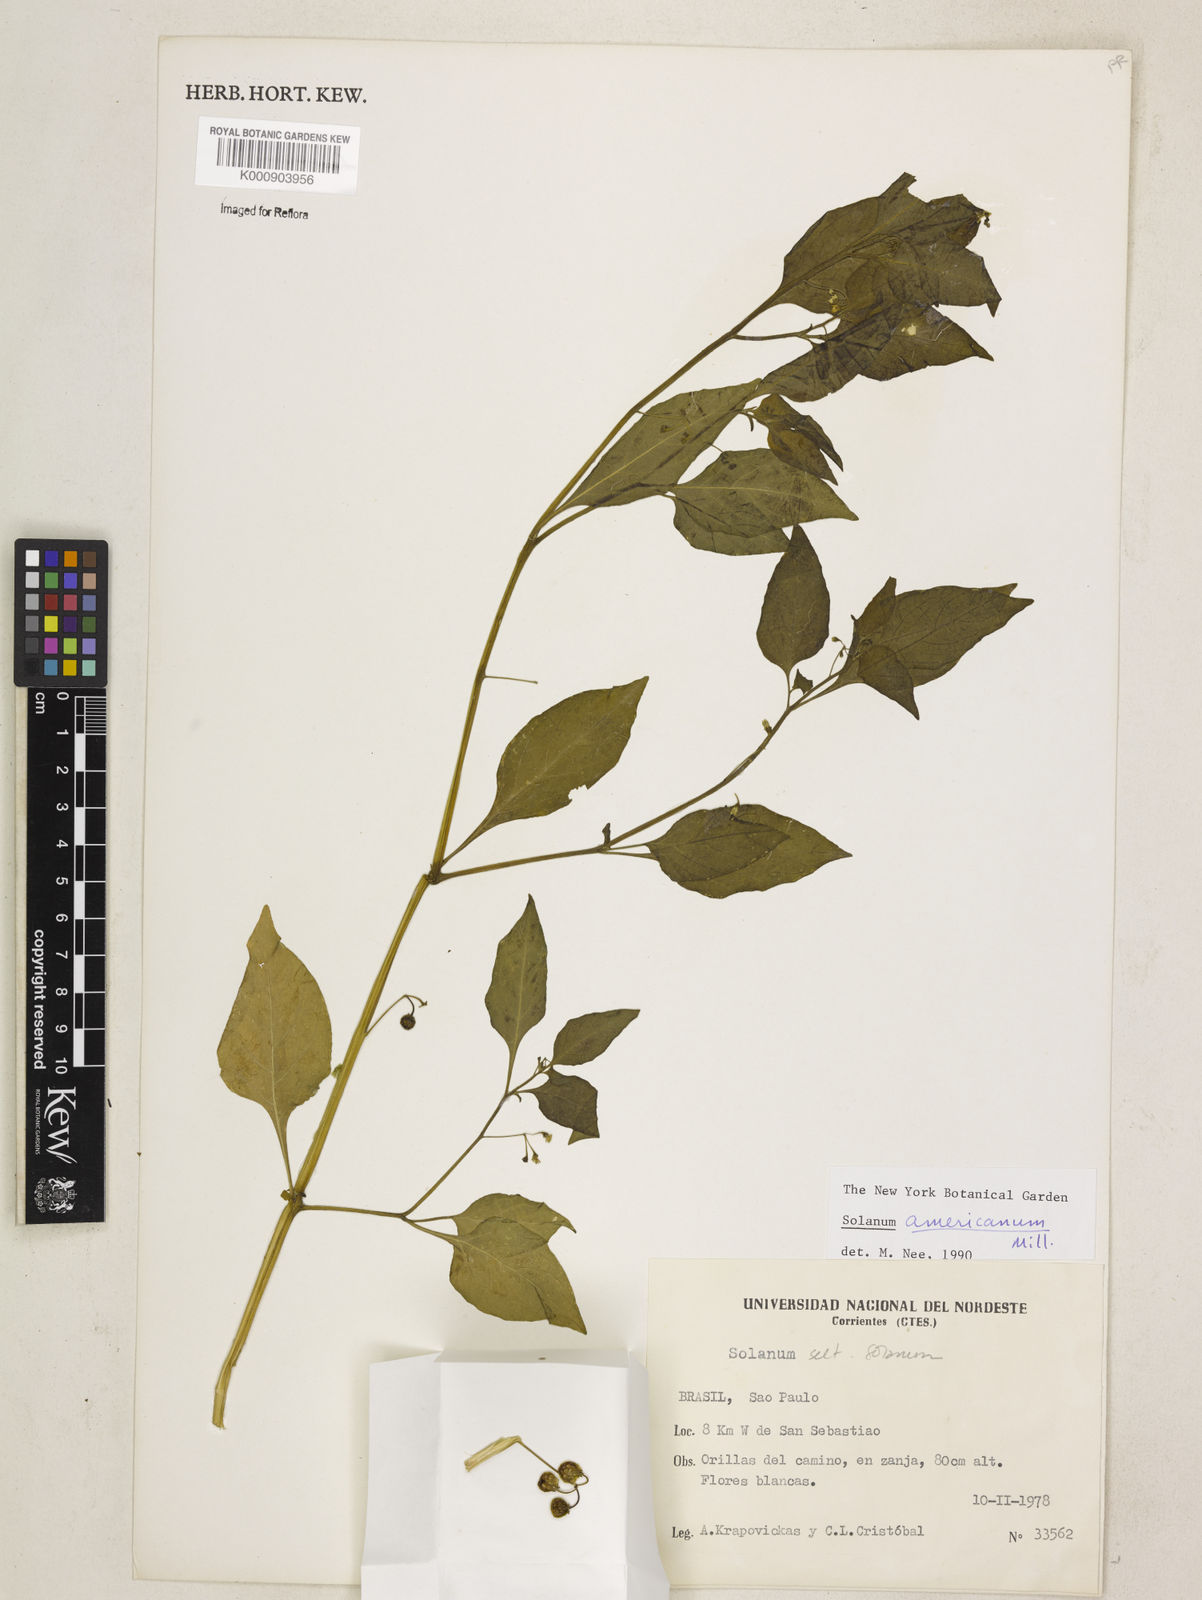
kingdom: Plantae
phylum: Tracheophyta
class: Magnoliopsida
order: Solanales
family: Solanaceae
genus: Solanum
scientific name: Solanum americanum
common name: American black nightshade
